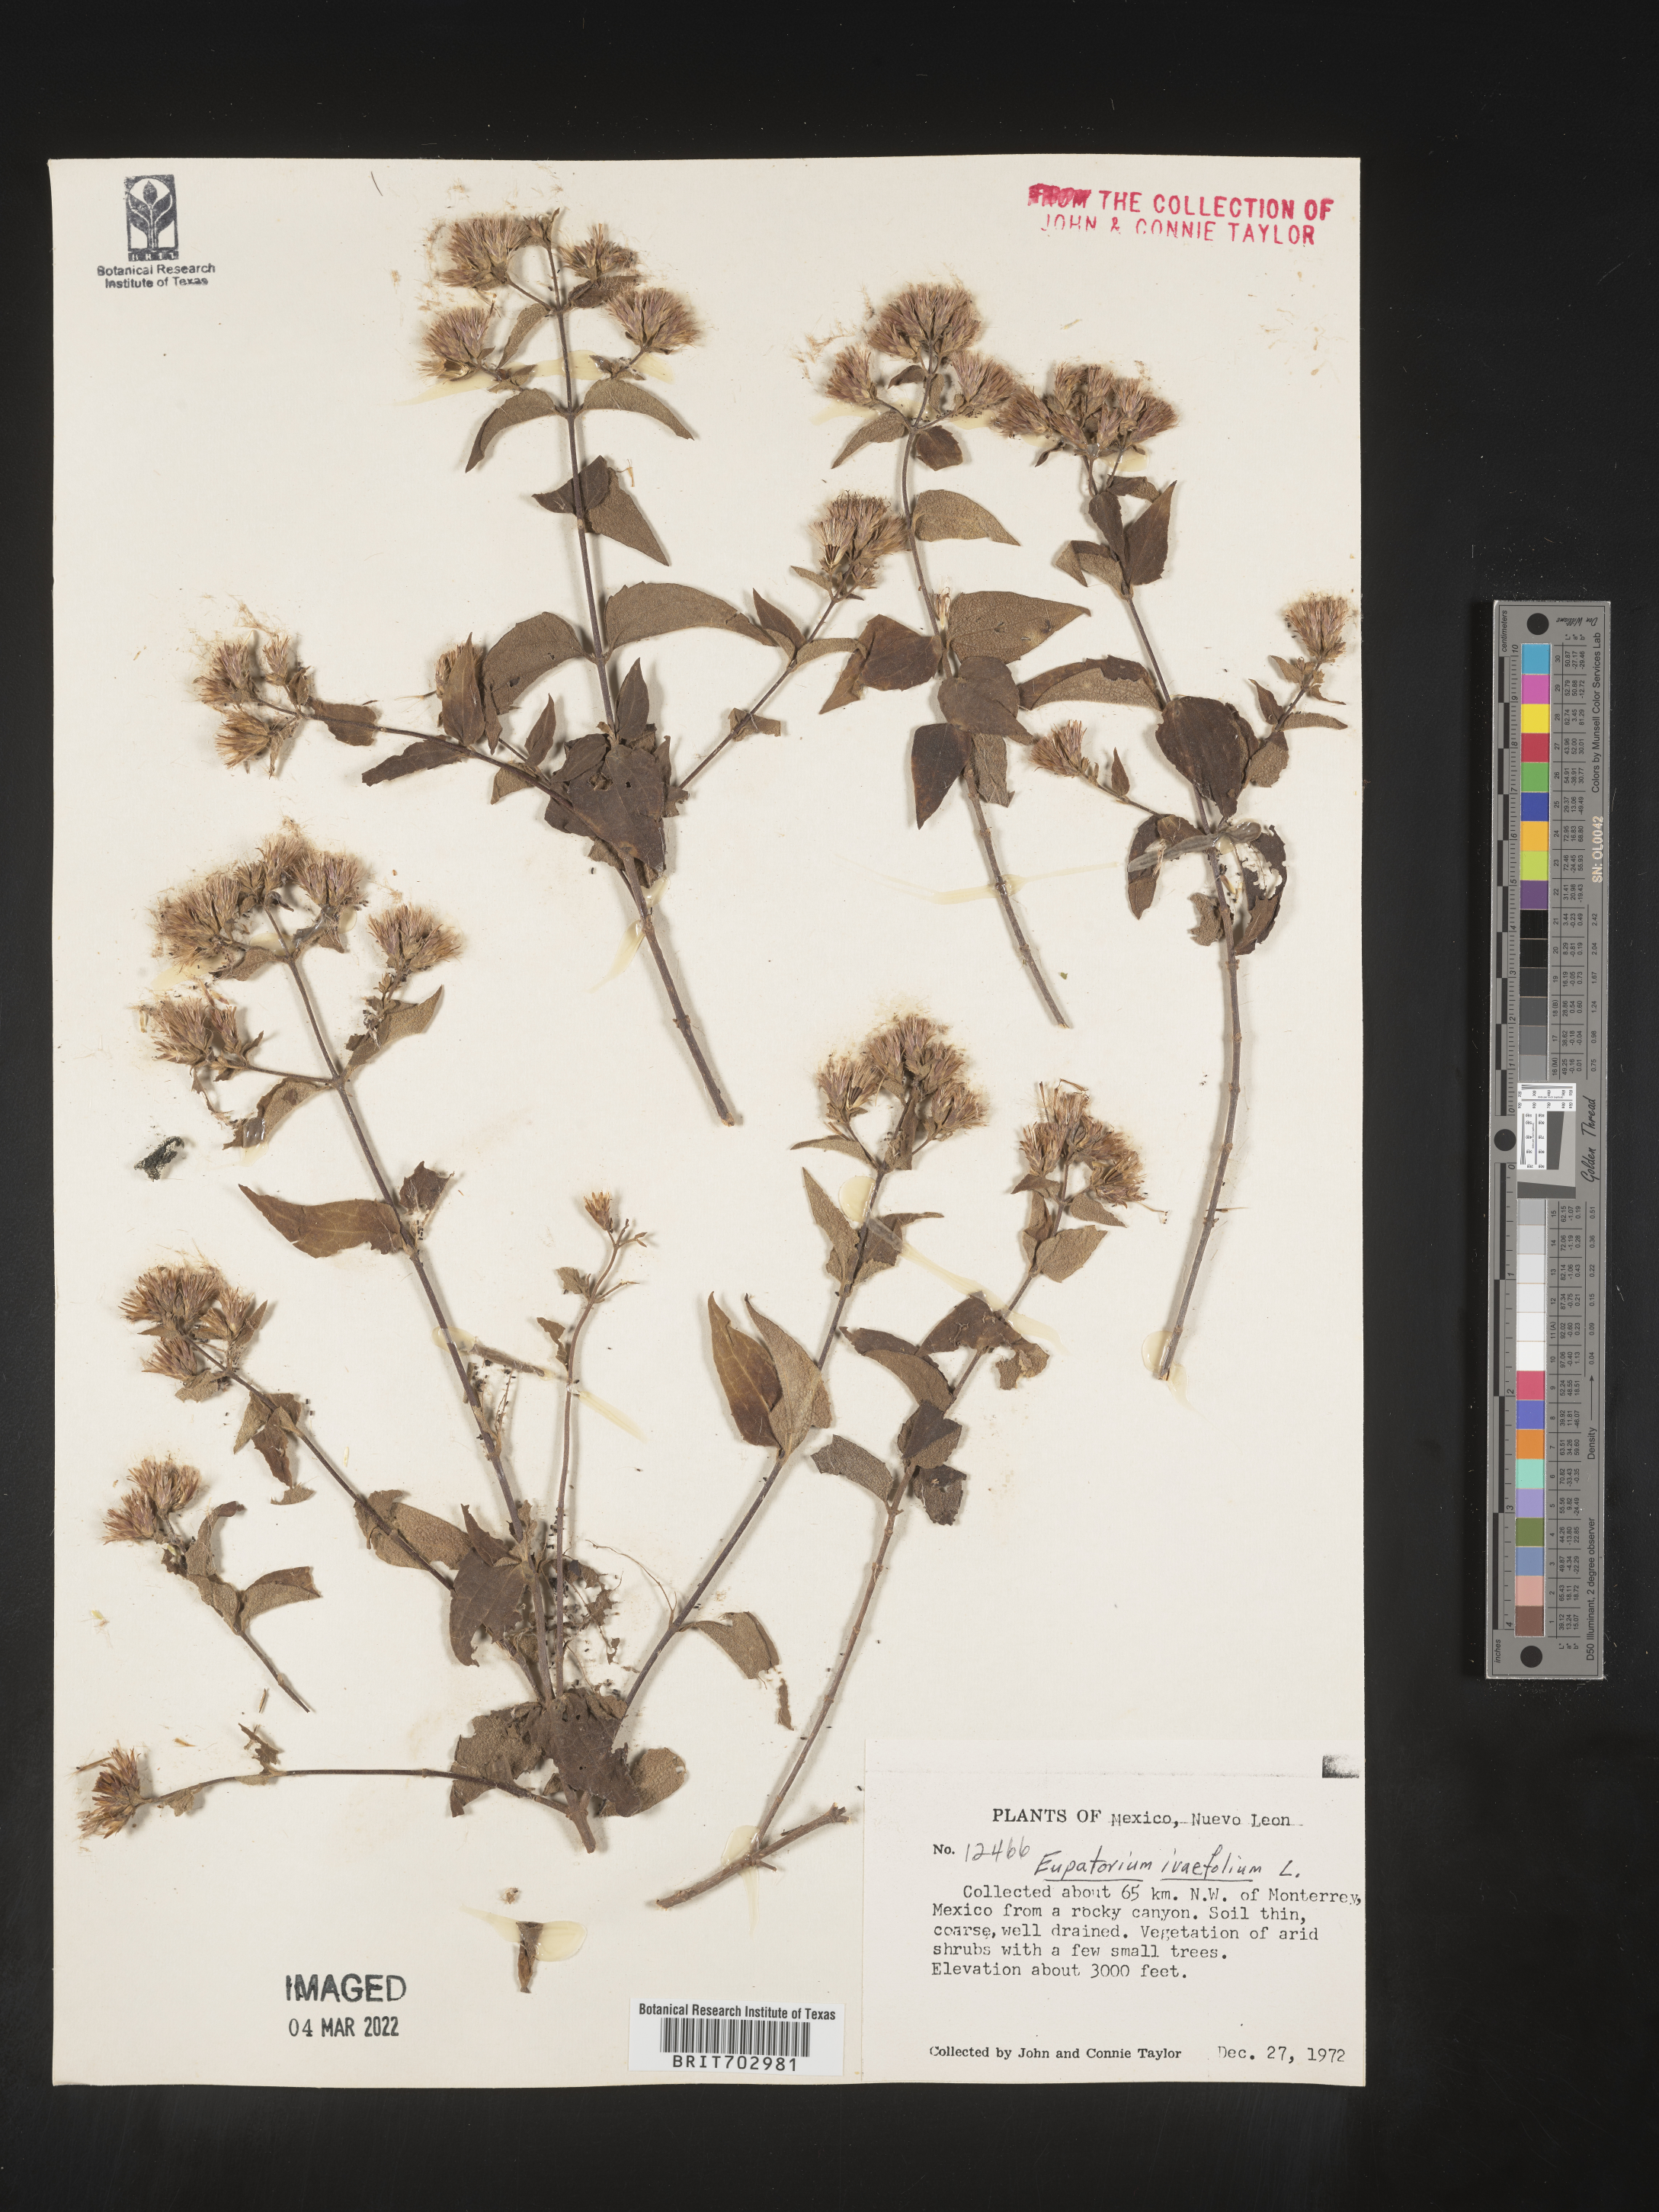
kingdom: Plantae
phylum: Tracheophyta
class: Magnoliopsida
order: Asterales
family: Asteraceae
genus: Eupatorium
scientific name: Eupatorium
